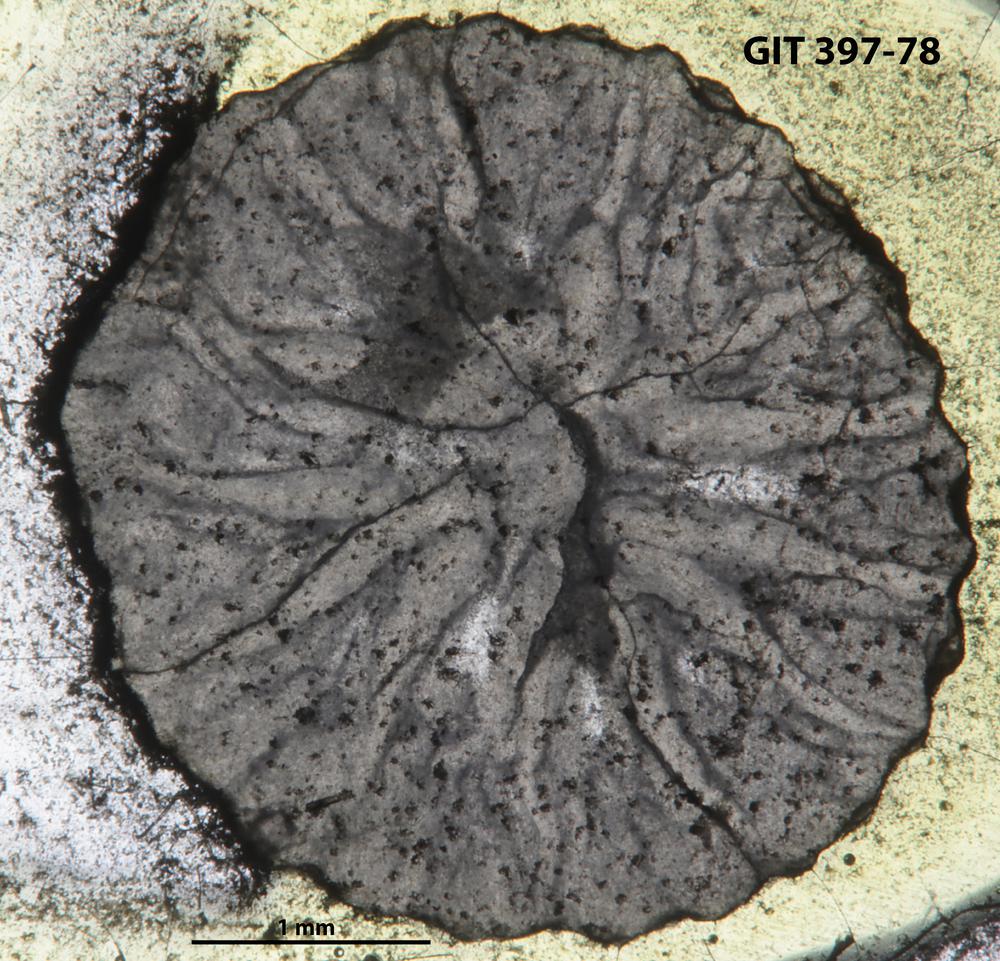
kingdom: Animalia
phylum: Cnidaria
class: Anthozoa
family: Streptelasmatidae
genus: Rhegmaphyllum
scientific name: Rhegmaphyllum
